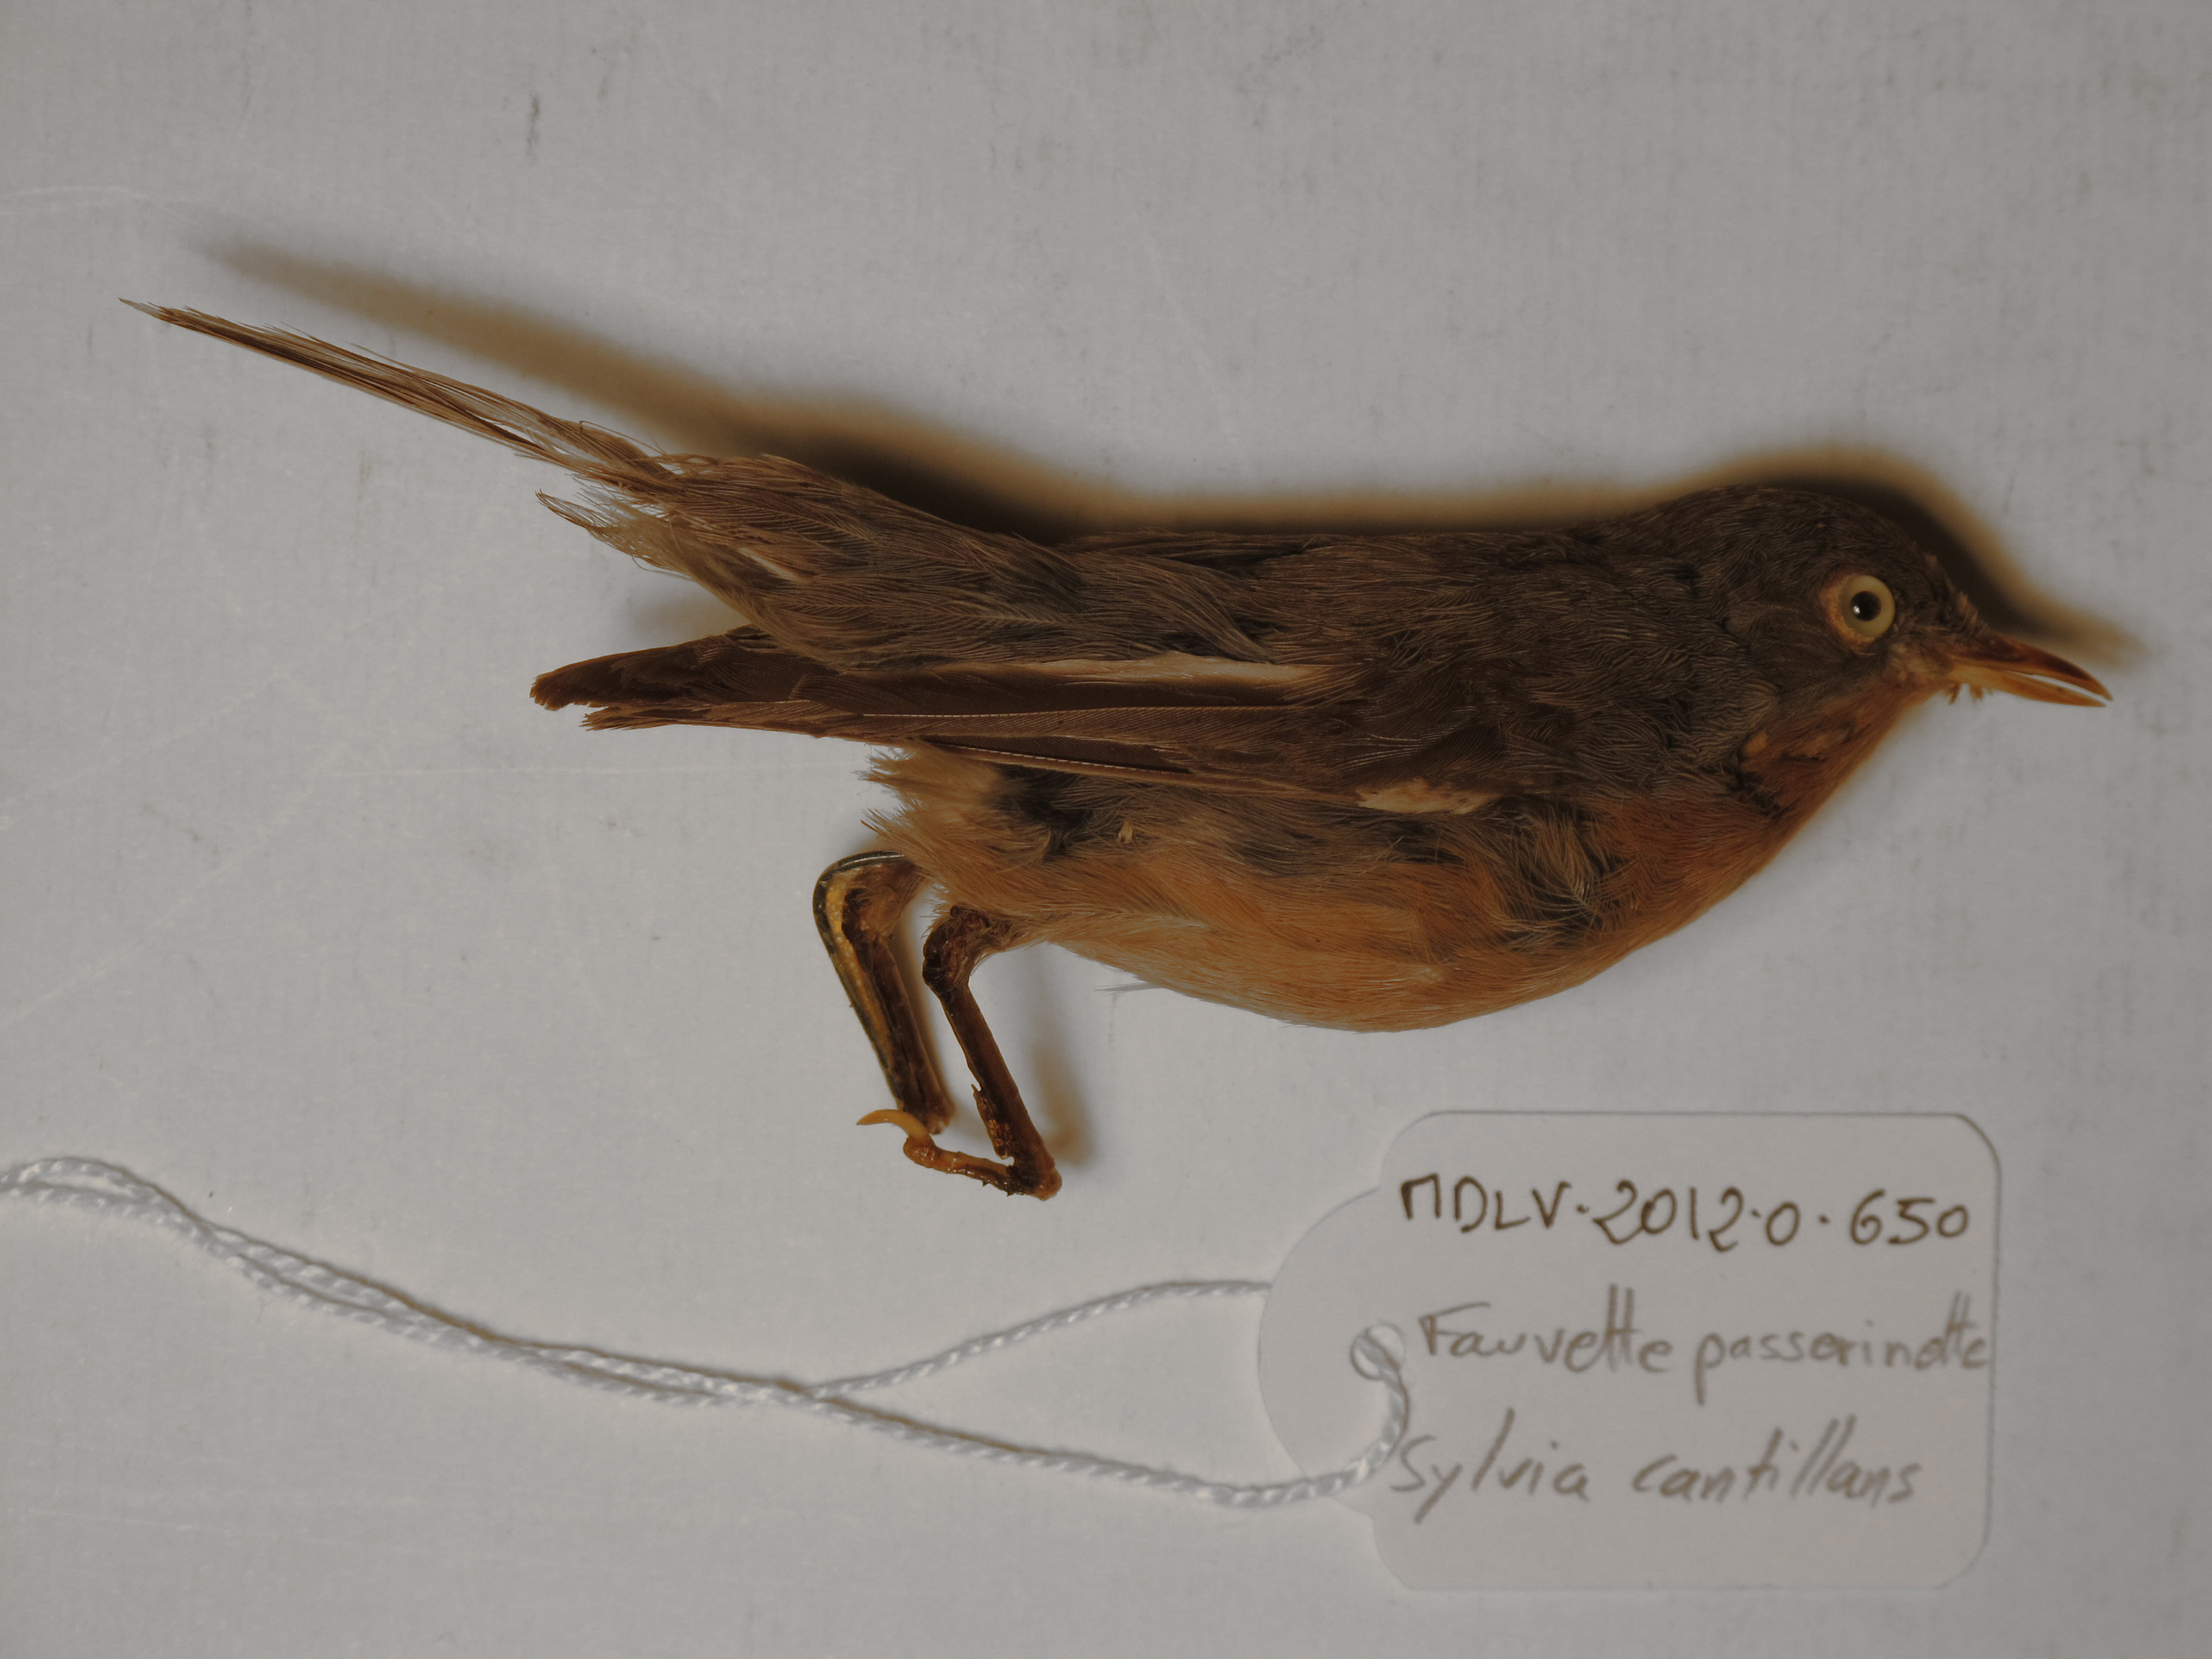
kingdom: Animalia
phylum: Chordata
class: Aves
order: Passeriformes
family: Sylviidae
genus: Sylvia
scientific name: Sylvia cantillans
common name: Subalpine Warbler
